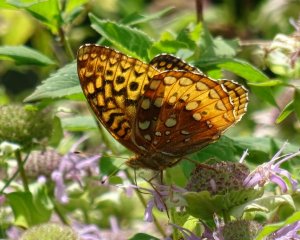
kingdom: Animalia
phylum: Arthropoda
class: Insecta
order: Lepidoptera
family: Nymphalidae
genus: Speyeria
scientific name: Speyeria cybele
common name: Great Spangled Fritillary
